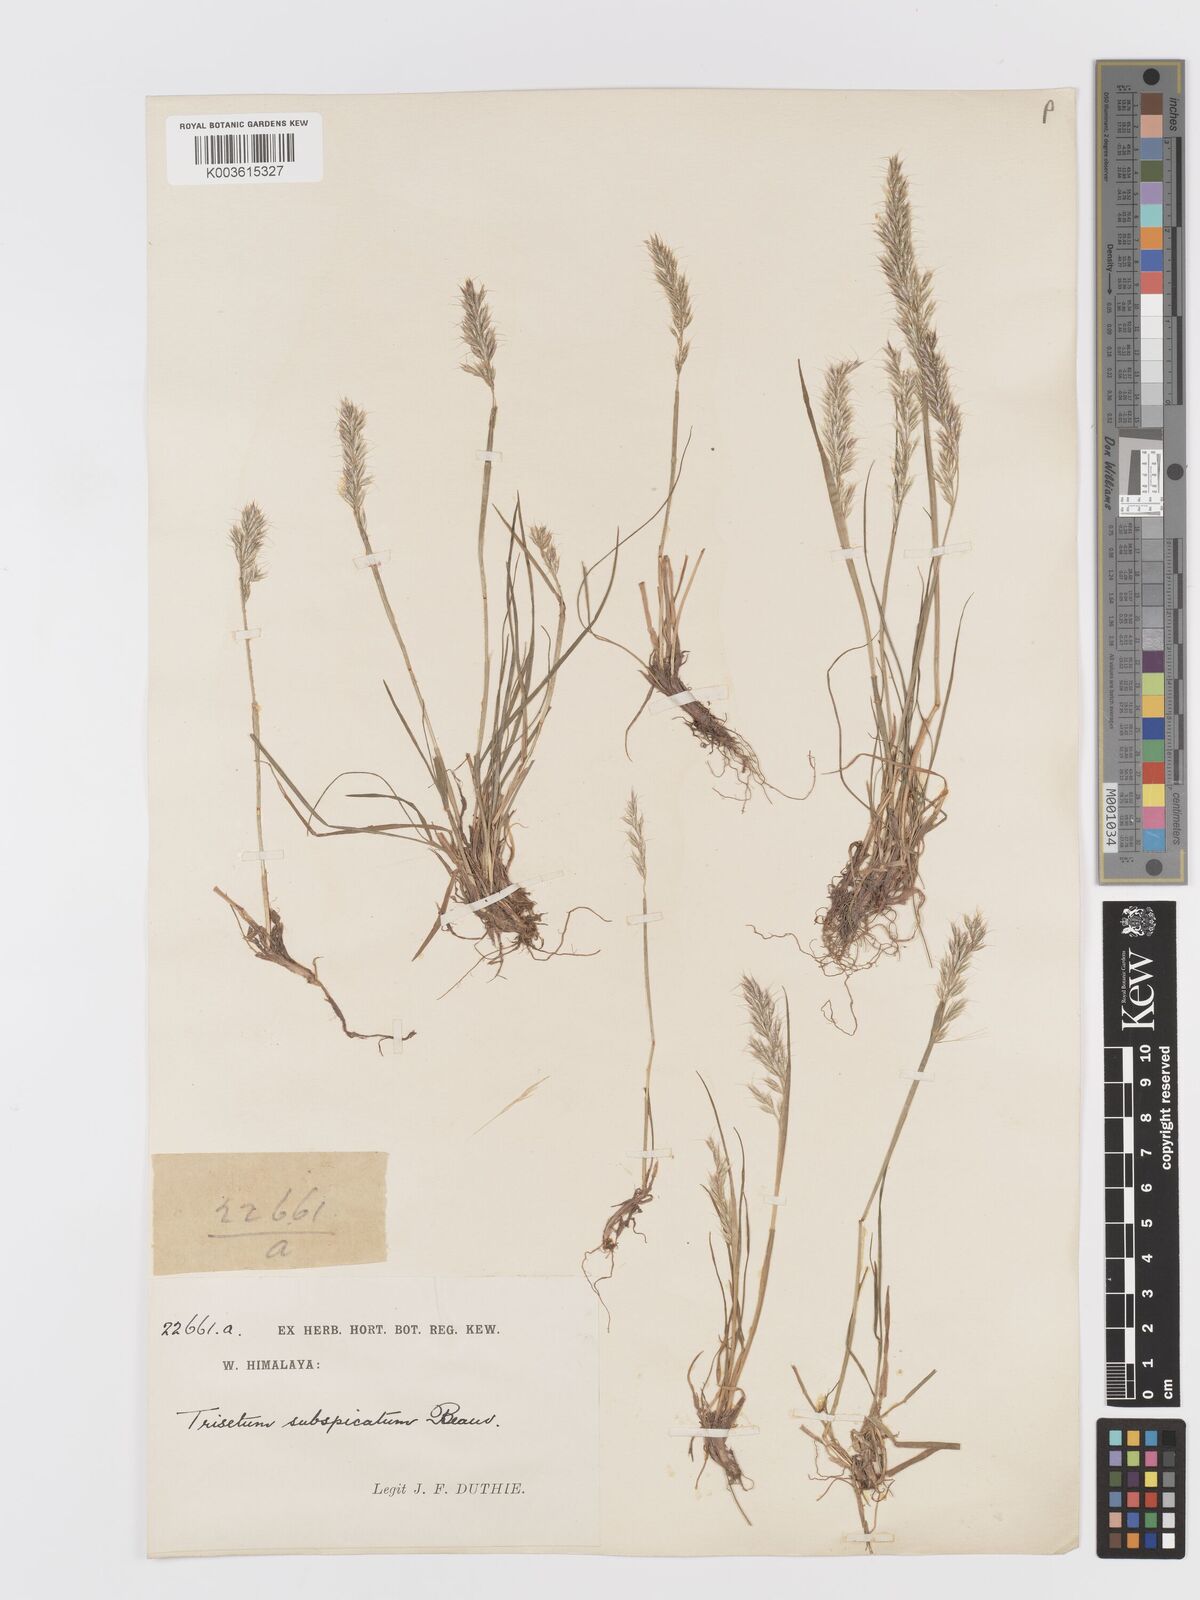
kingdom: Plantae
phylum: Tracheophyta
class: Liliopsida
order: Poales
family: Poaceae
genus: Koeleria
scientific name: Koeleria spicata
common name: Mountain trisetum
